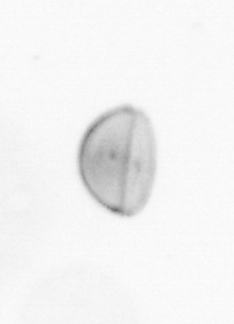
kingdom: Chromista
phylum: Ochrophyta
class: Bacillariophyceae
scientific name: Bacillariophyceae
